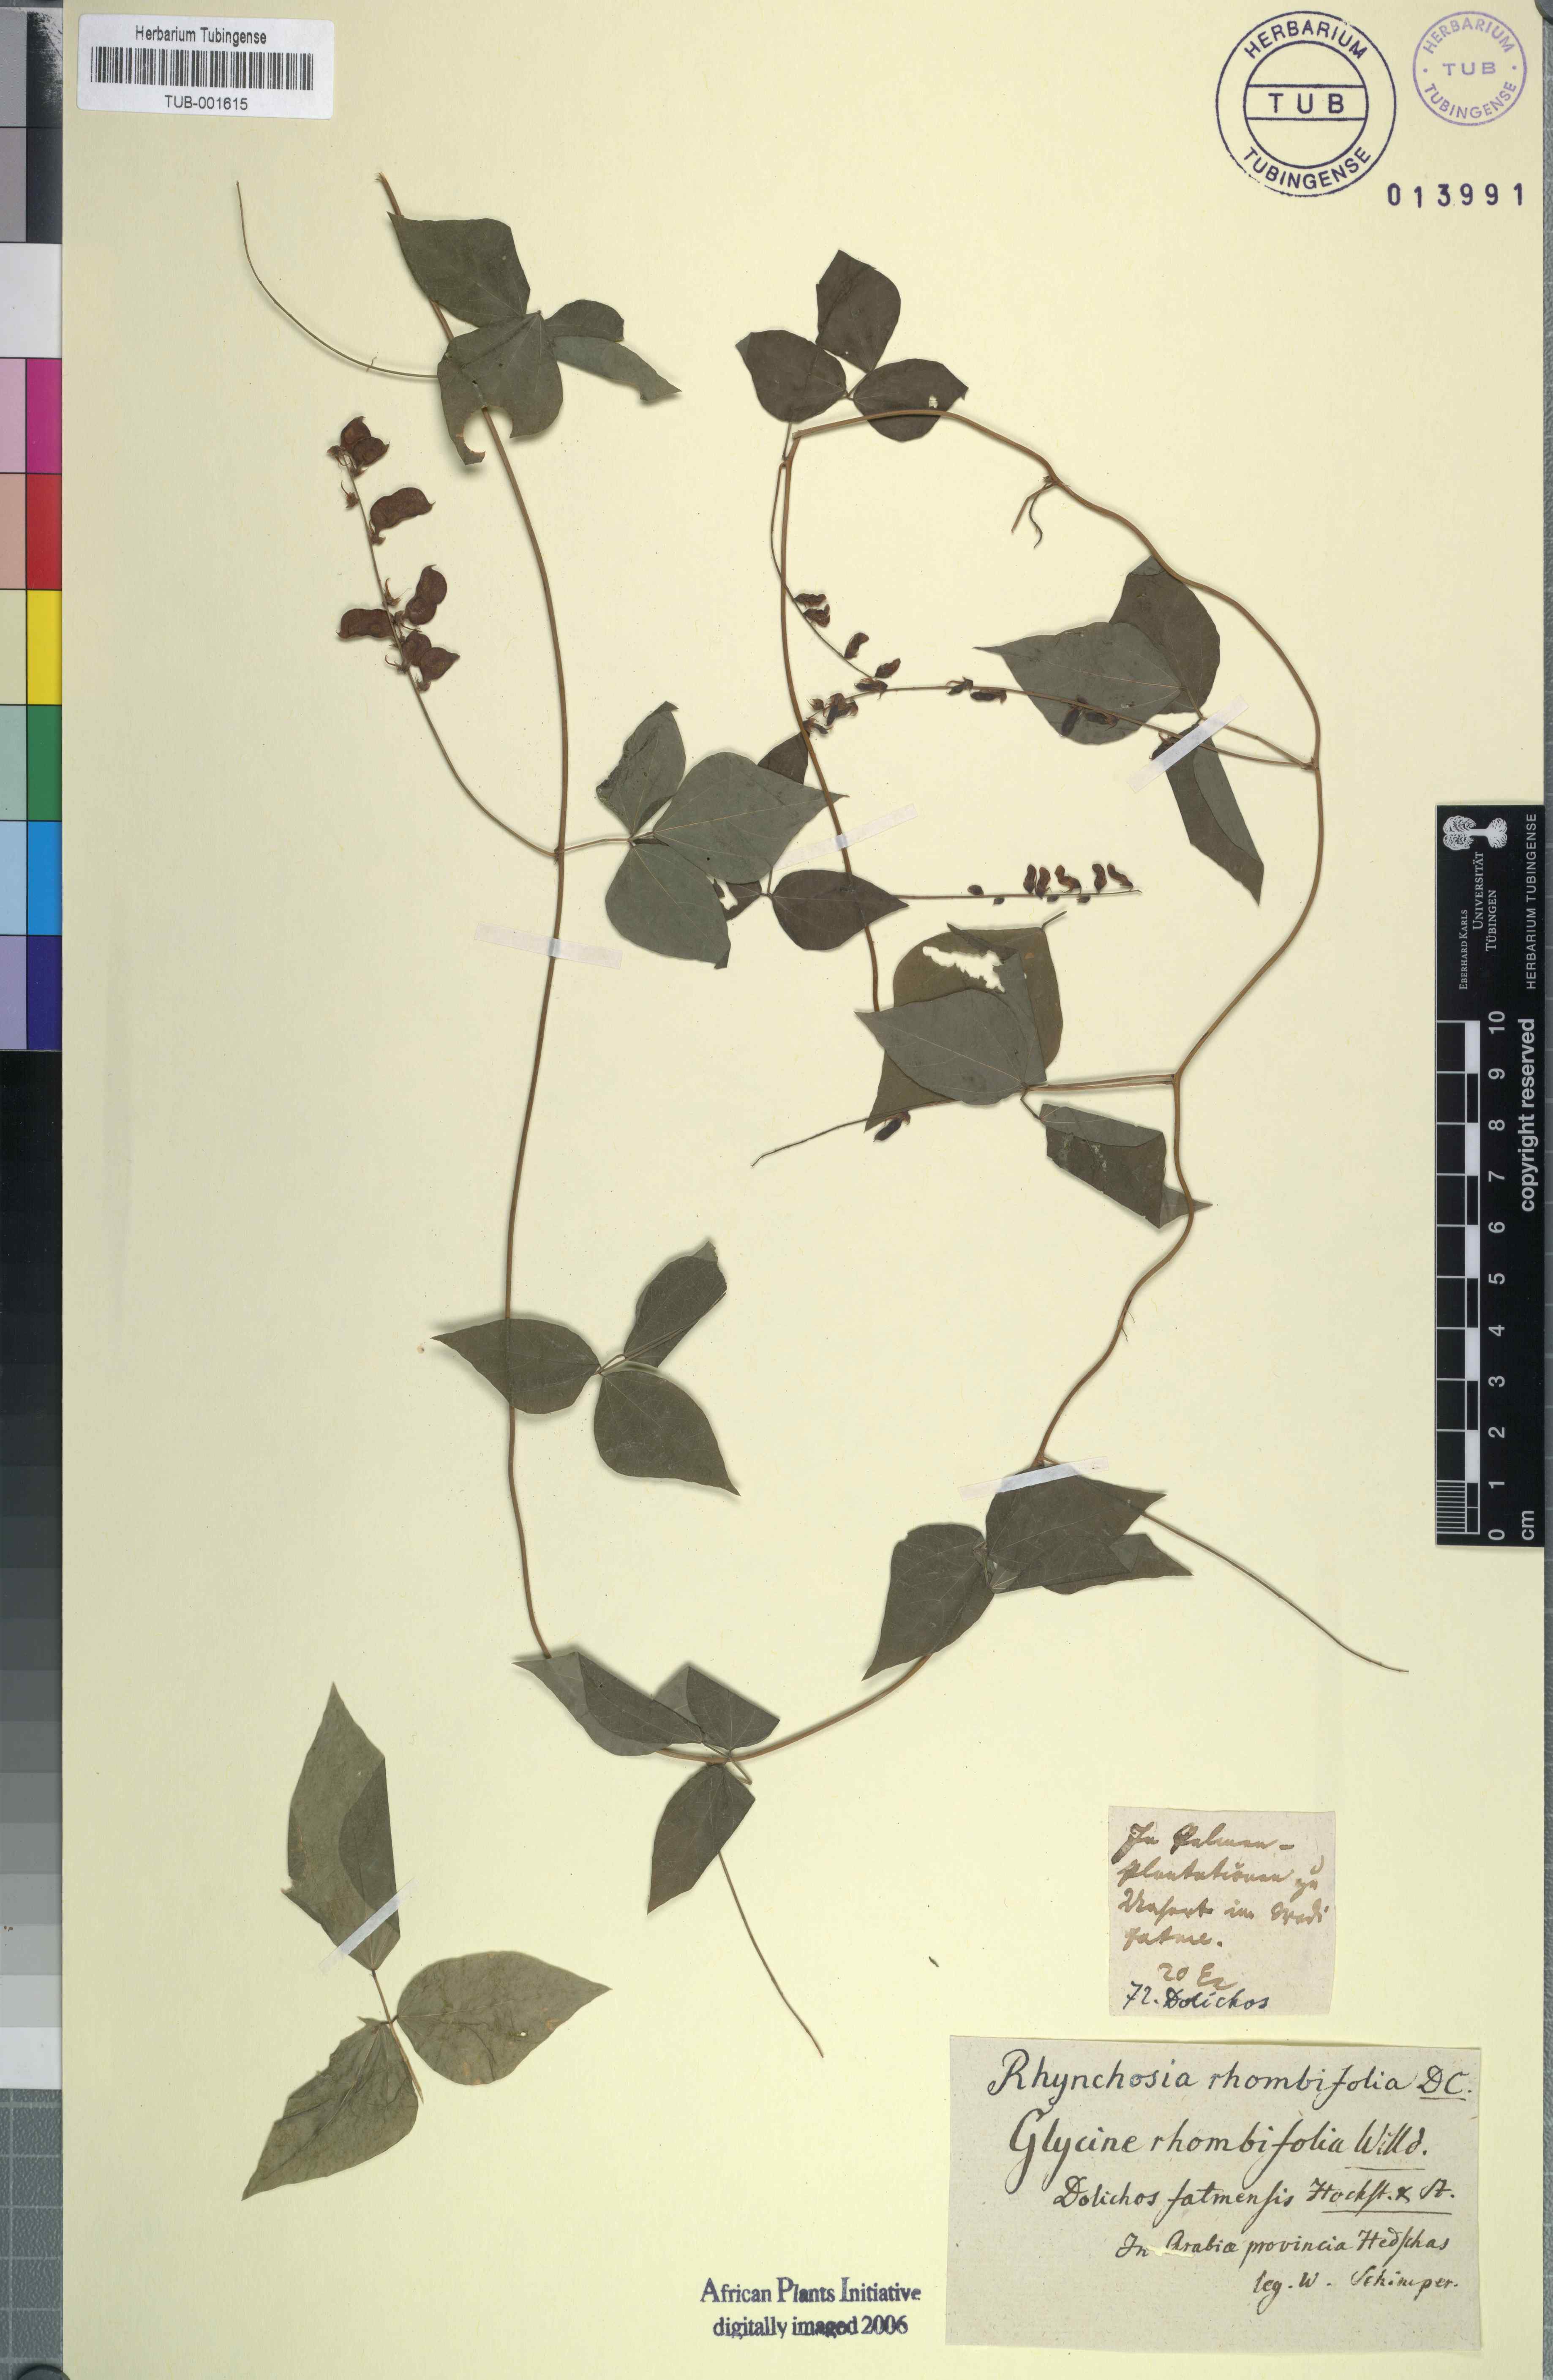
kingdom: Plantae
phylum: Tracheophyta
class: Magnoliopsida
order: Fabales
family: Fabaceae
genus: Rhynchosia
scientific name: Rhynchosia minima
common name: Least snoutbean
